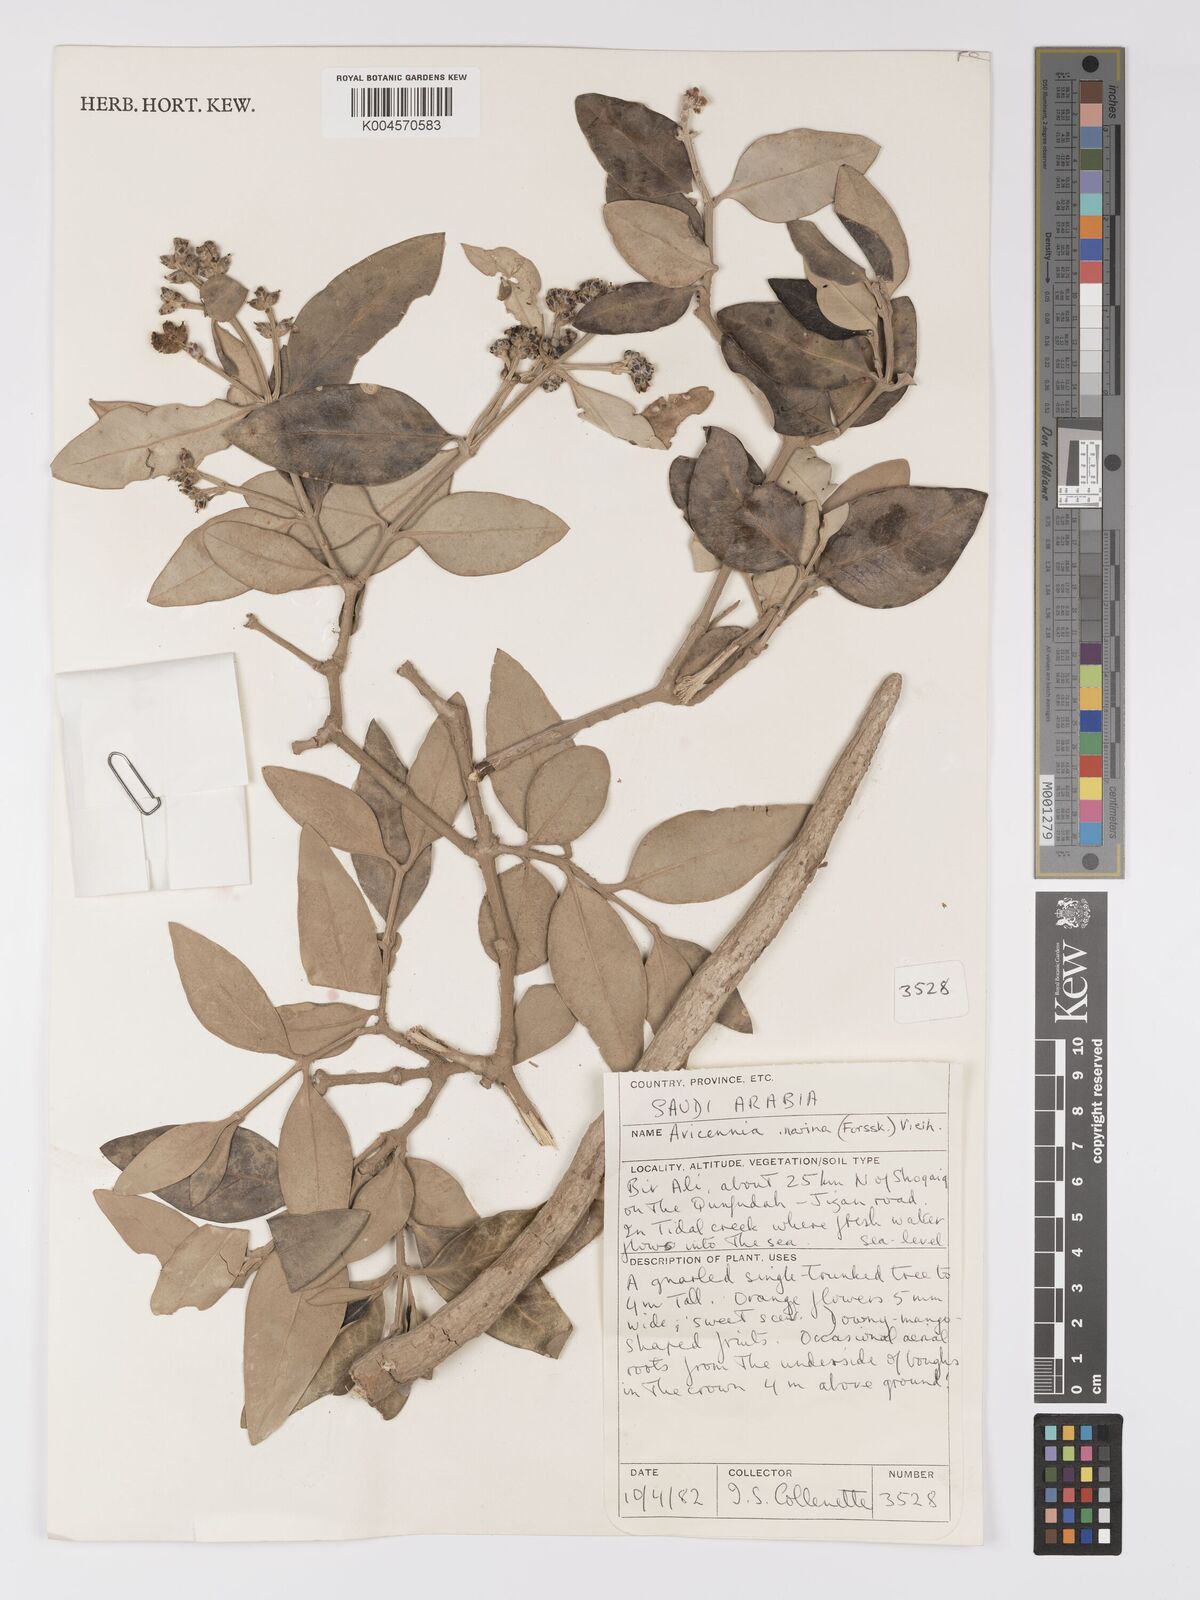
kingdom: Plantae
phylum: Tracheophyta
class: Magnoliopsida
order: Lamiales
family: Acanthaceae
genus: Avicennia
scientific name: Avicennia marina
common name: Gray mangrove
